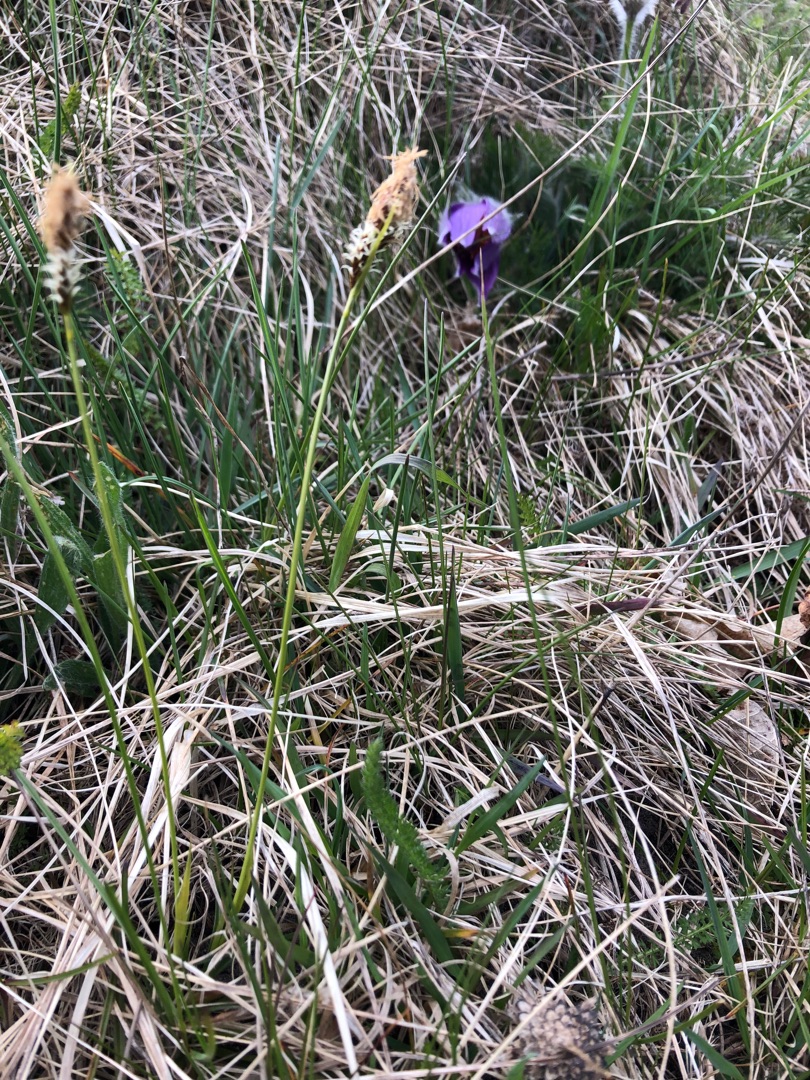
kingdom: Plantae
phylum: Tracheophyta
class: Liliopsida
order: Poales
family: Cyperaceae
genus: Carex
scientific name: Carex caryophyllea
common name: Vår-star
